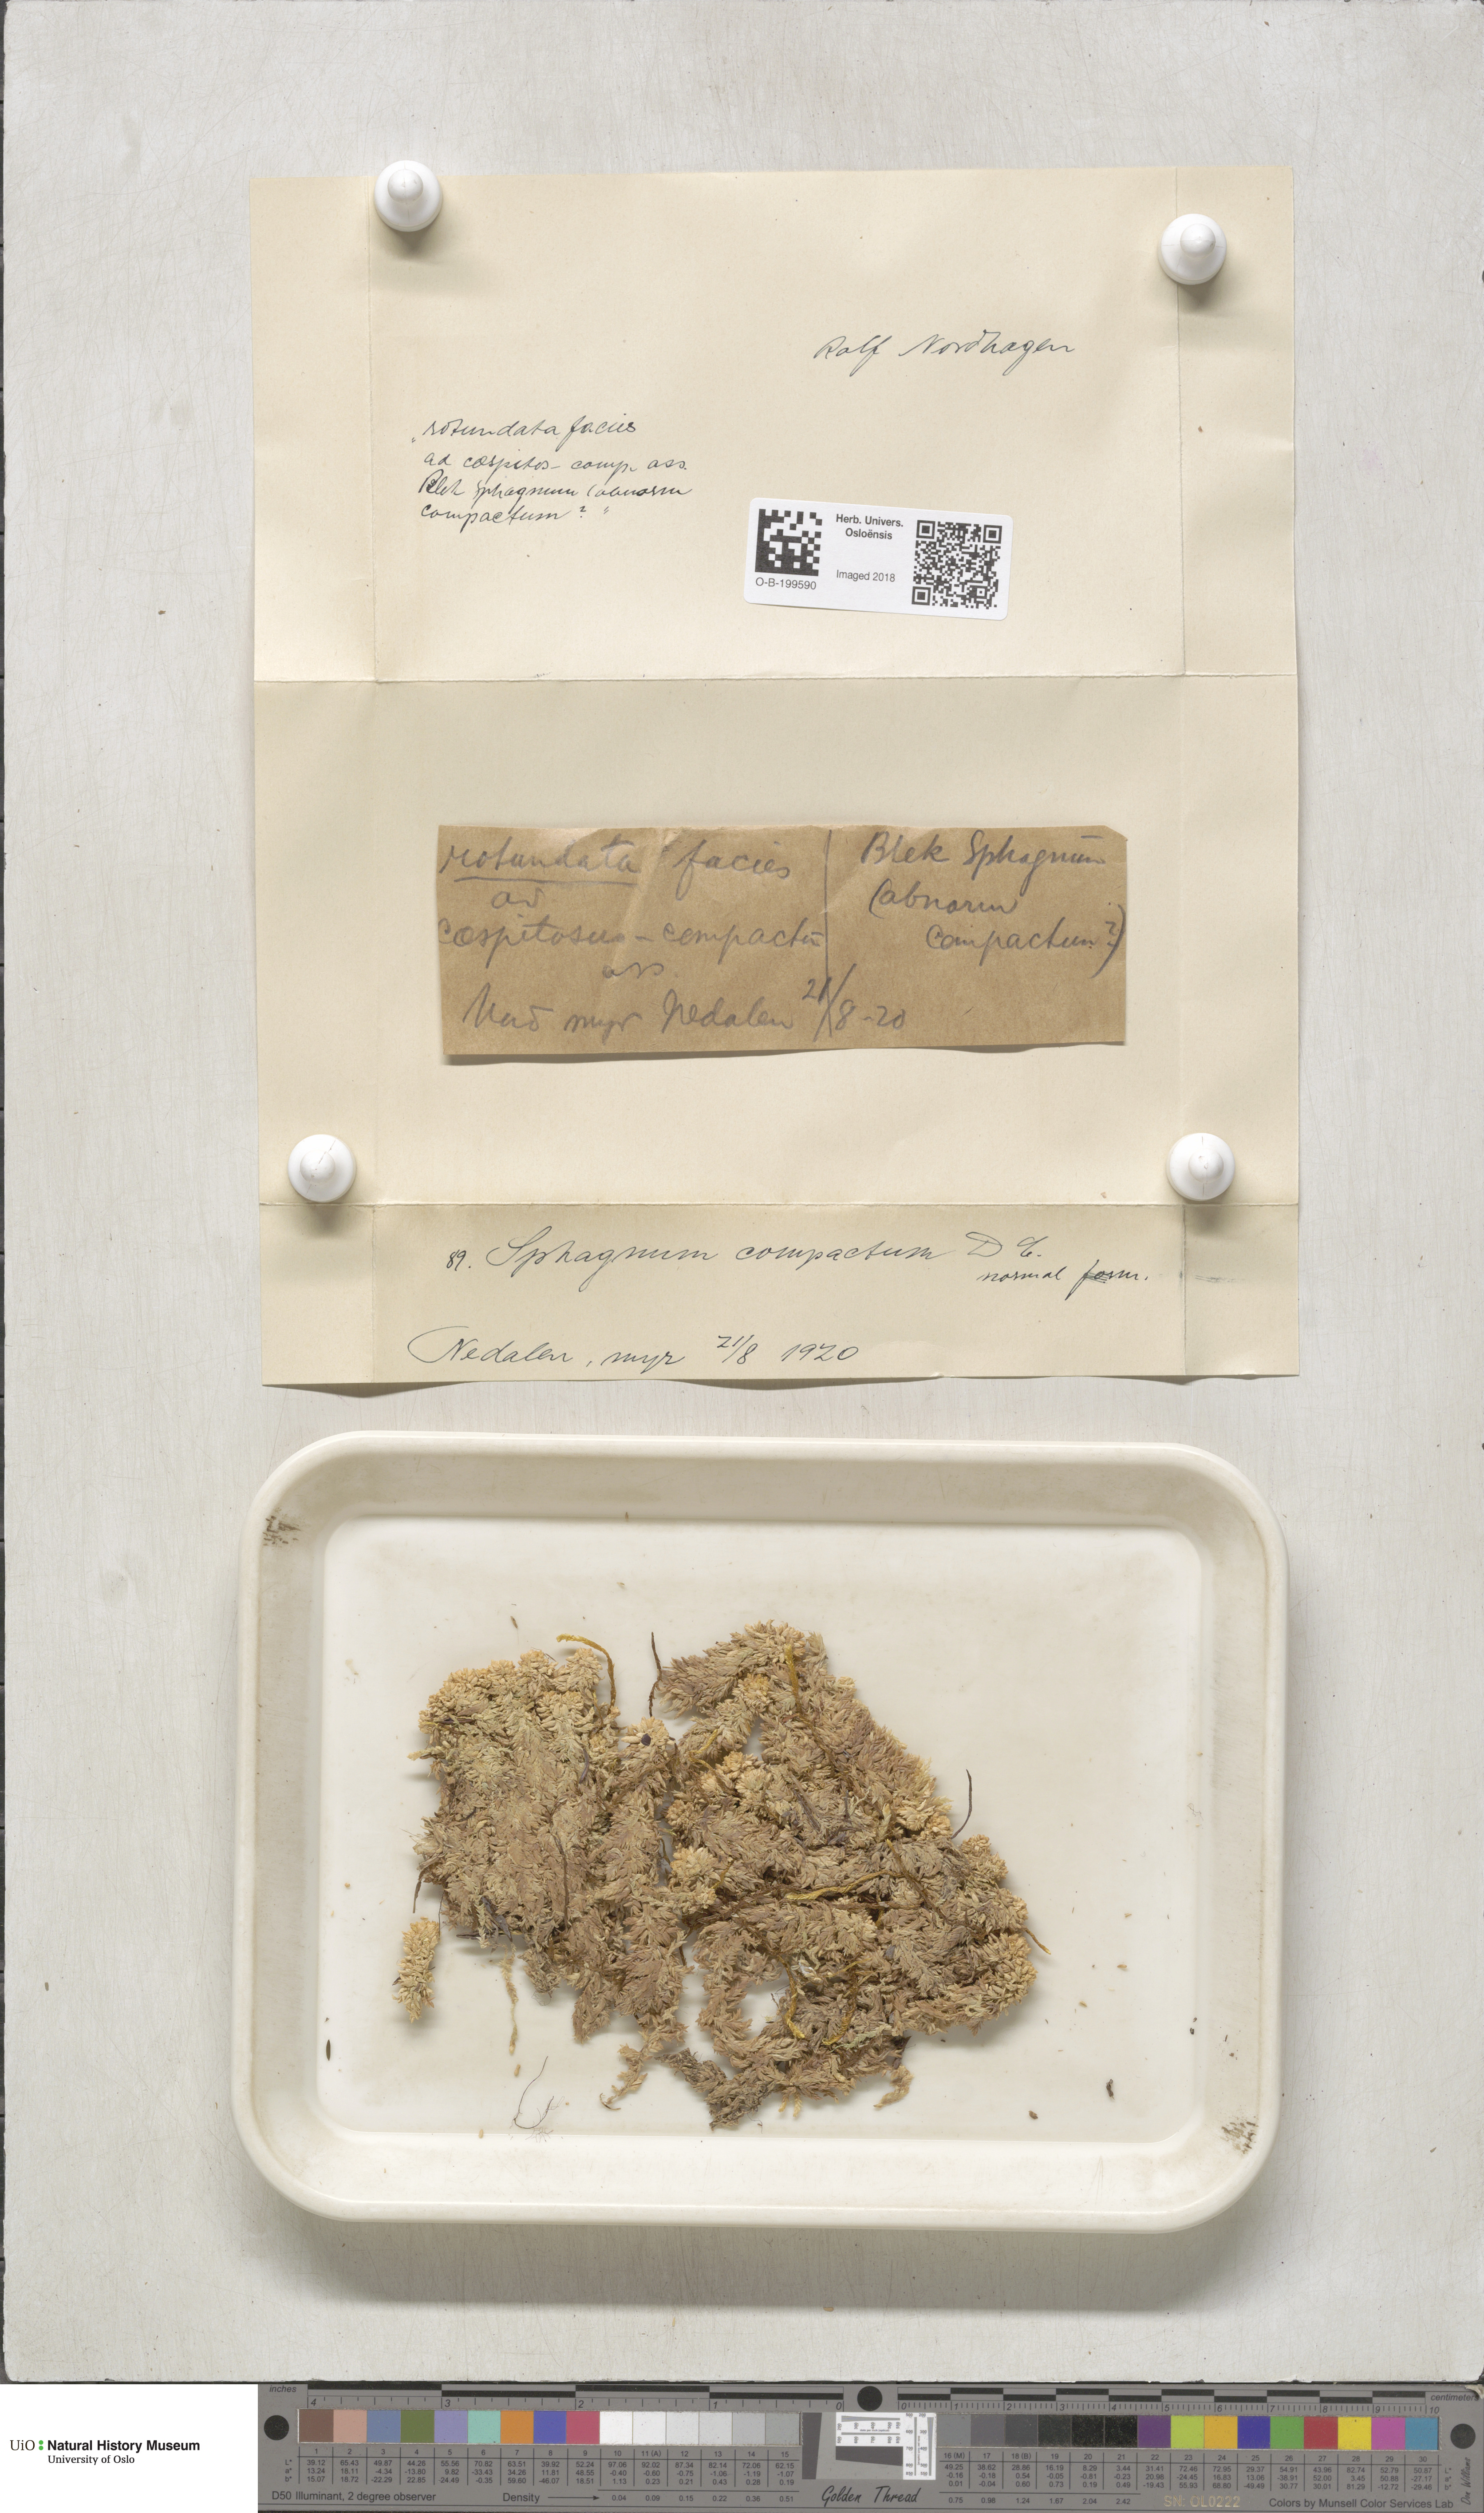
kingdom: Plantae
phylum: Bryophyta
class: Sphagnopsida
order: Sphagnales
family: Sphagnaceae
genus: Sphagnum
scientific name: Sphagnum compactum
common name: Compact peat moss
